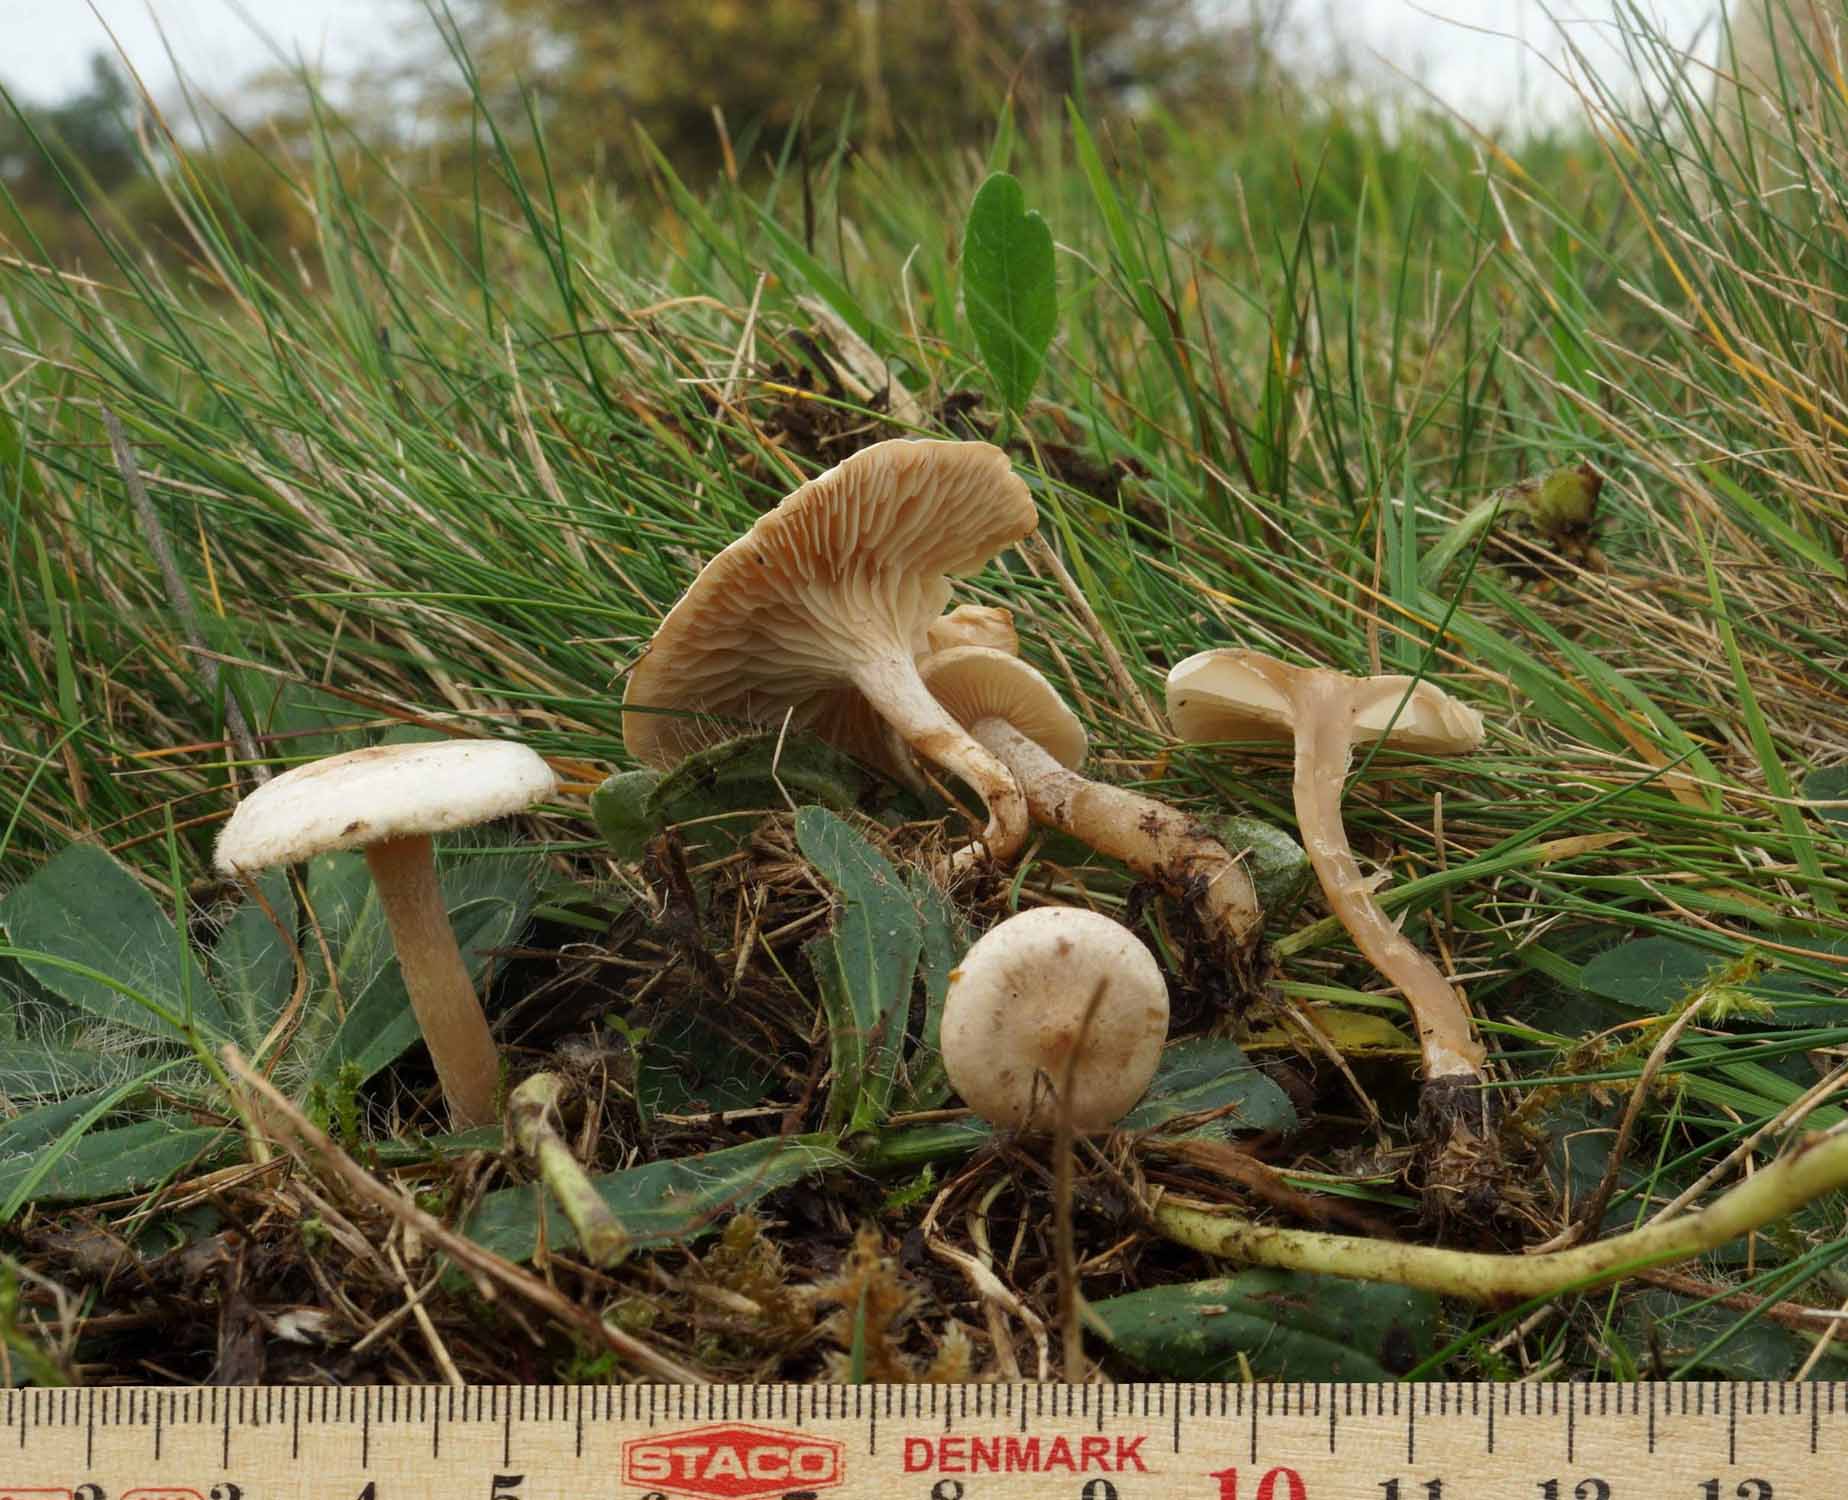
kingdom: Fungi
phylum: Basidiomycota
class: Agaricomycetes
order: Agaricales
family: Tricholomataceae
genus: Clitocybe
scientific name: Clitocybe rivulosa
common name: eng-tragthat
